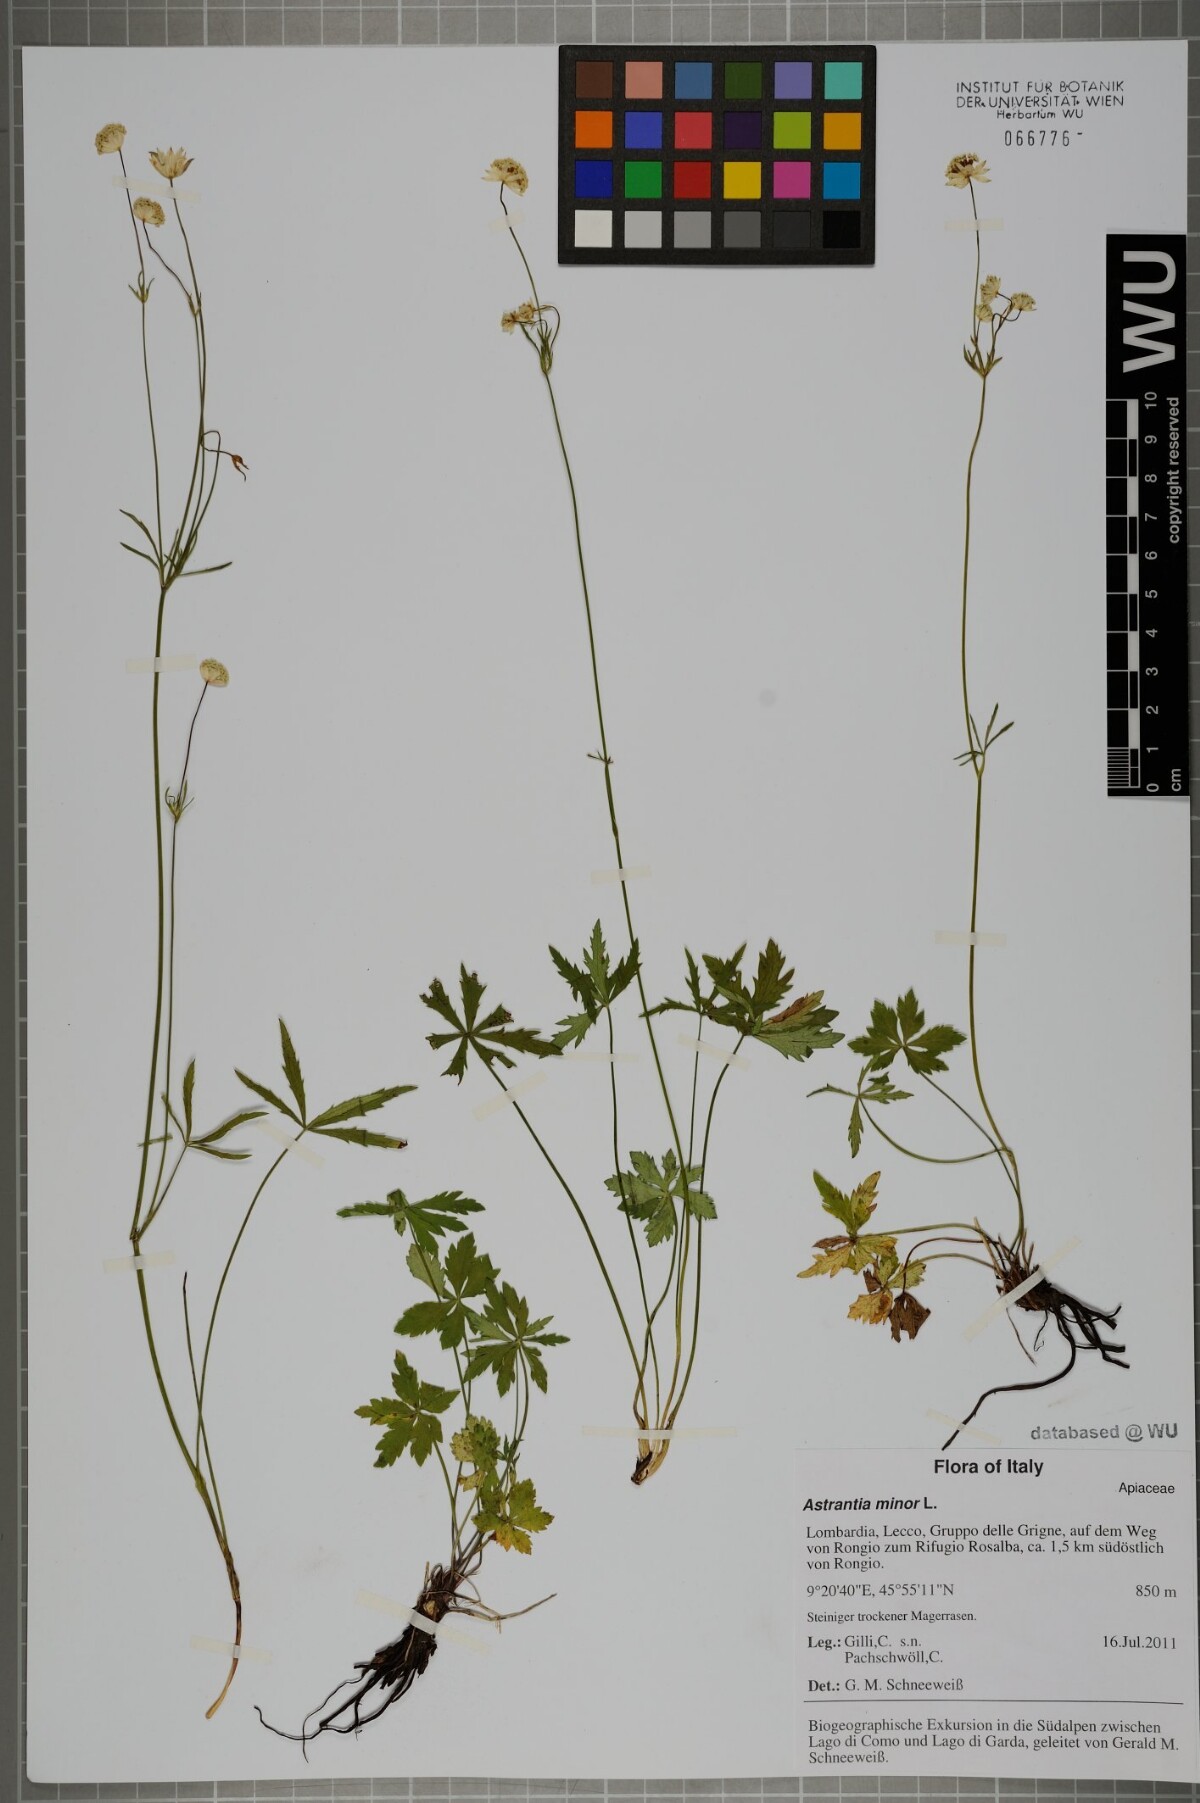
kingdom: Plantae
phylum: Tracheophyta
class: Magnoliopsida
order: Apiales
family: Apiaceae
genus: Astrantia
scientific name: Astrantia minor
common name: Lesser masterwort
